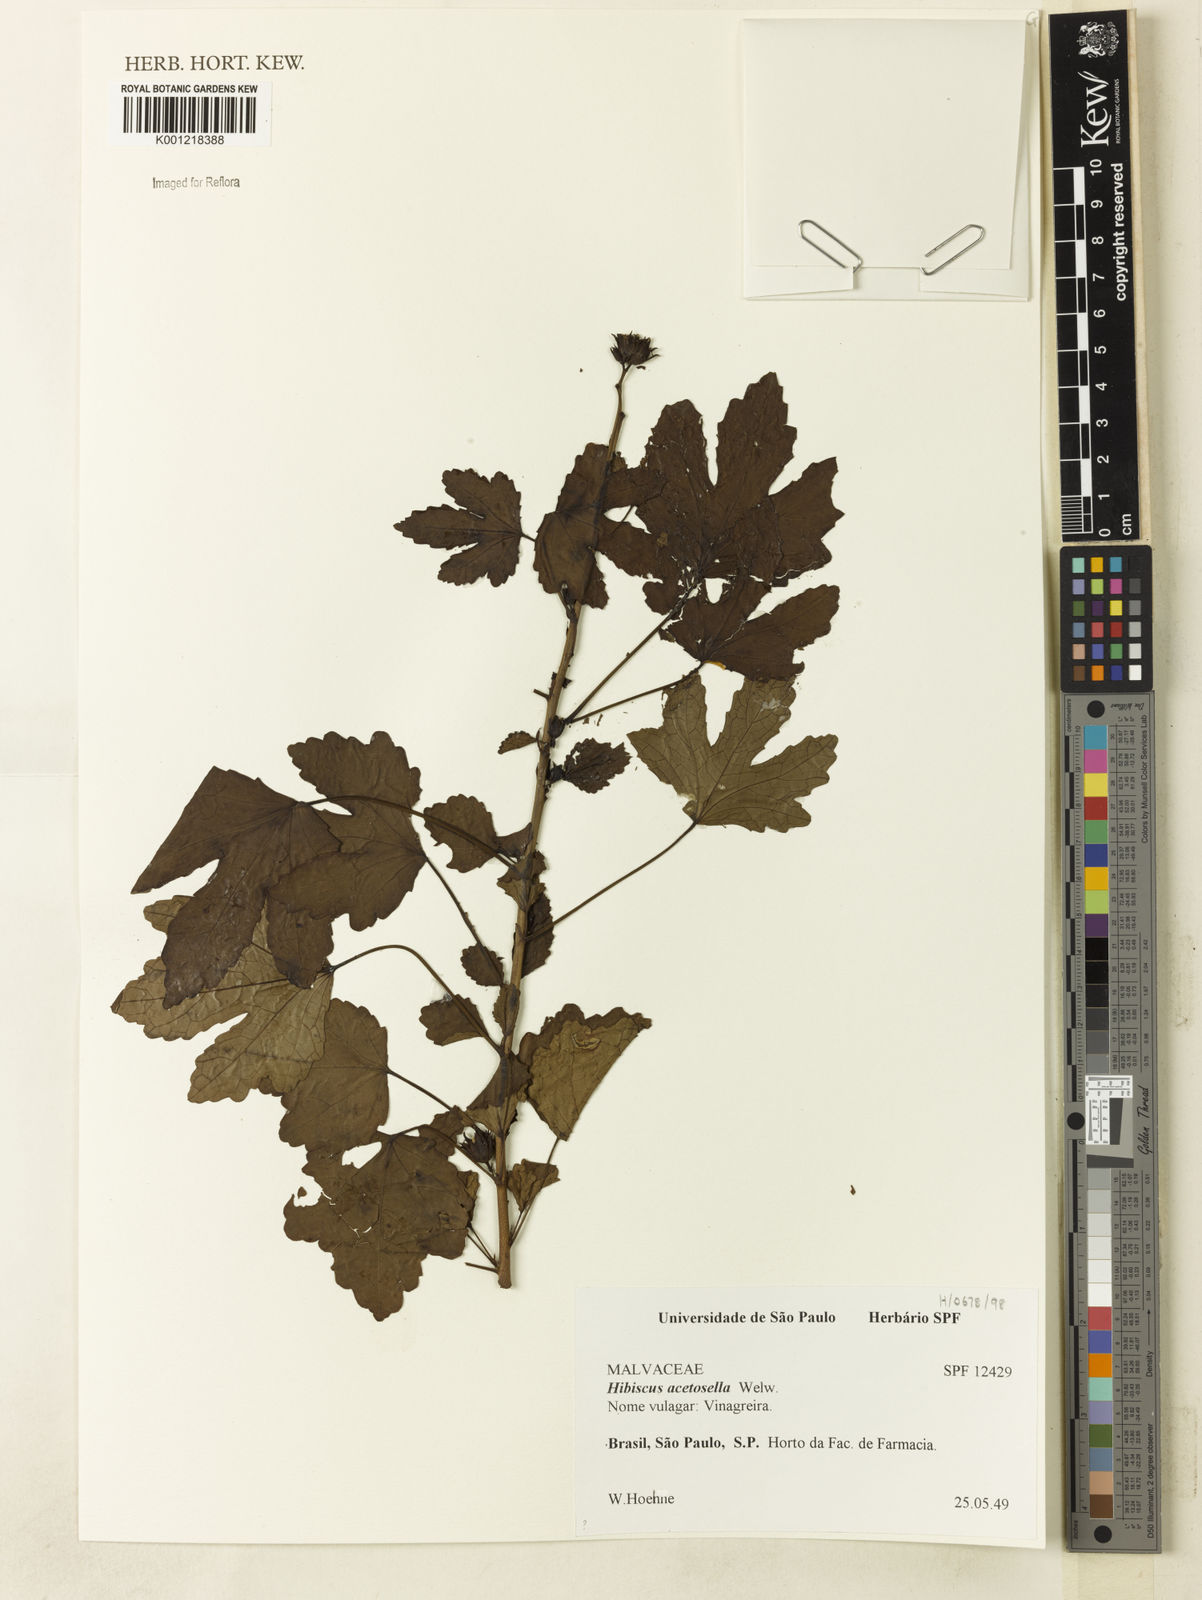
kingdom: Plantae
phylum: Tracheophyta
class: Magnoliopsida
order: Malvales
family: Malvaceae
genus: Hibiscus
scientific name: Hibiscus
